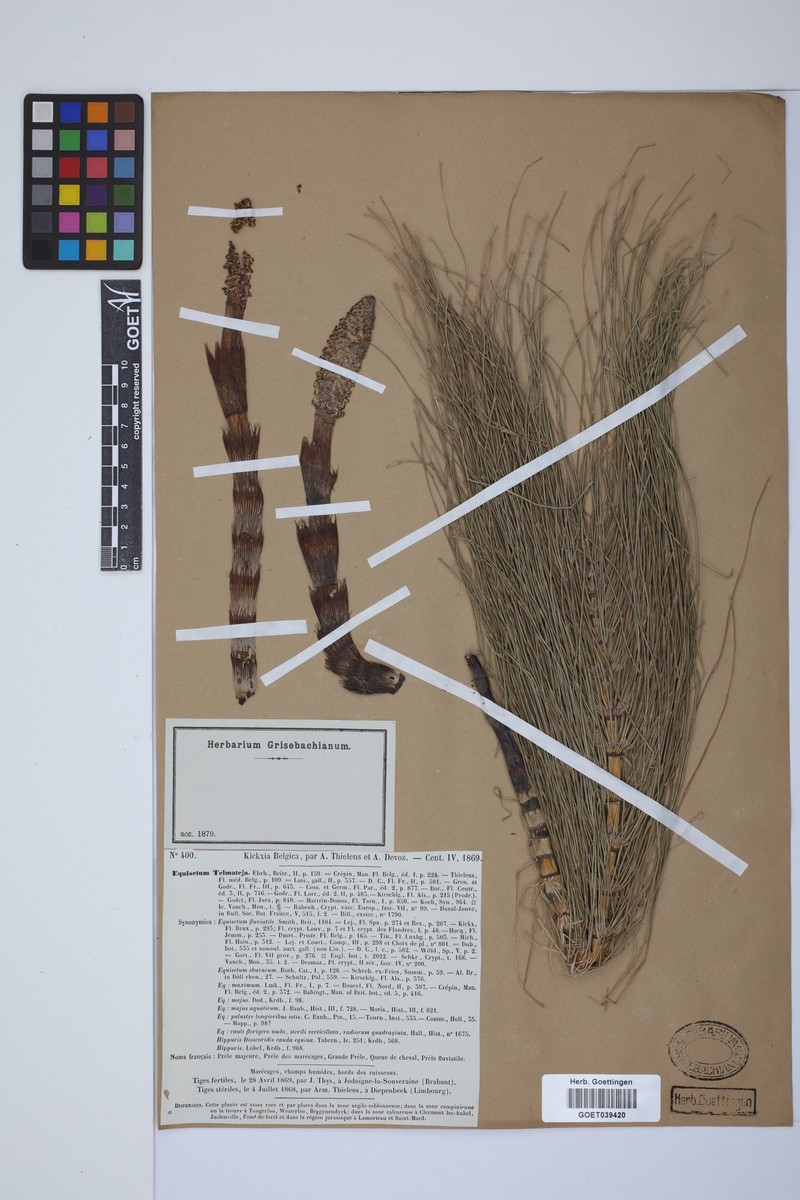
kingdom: Plantae
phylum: Tracheophyta
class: Polypodiopsida
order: Equisetales
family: Equisetaceae
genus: Equisetum
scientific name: Equisetum telmateia
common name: Great horsetail
